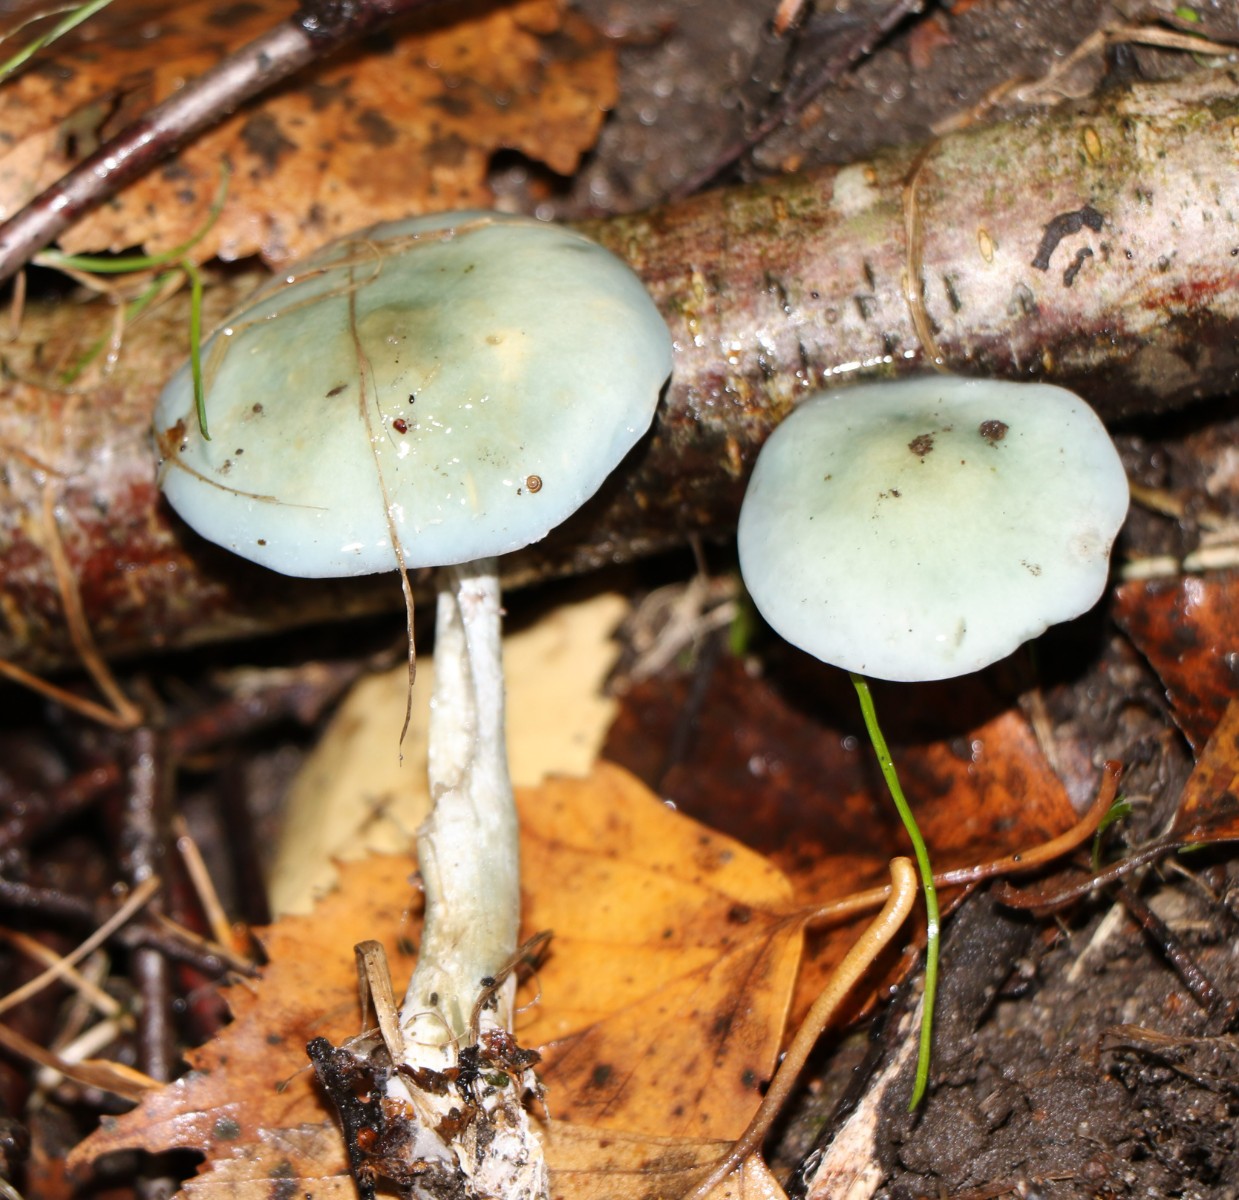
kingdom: Fungi
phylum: Basidiomycota
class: Agaricomycetes
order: Agaricales
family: Strophariaceae
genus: Stropharia
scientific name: Stropharia aeruginosa
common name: spanskgrøn bredblad
